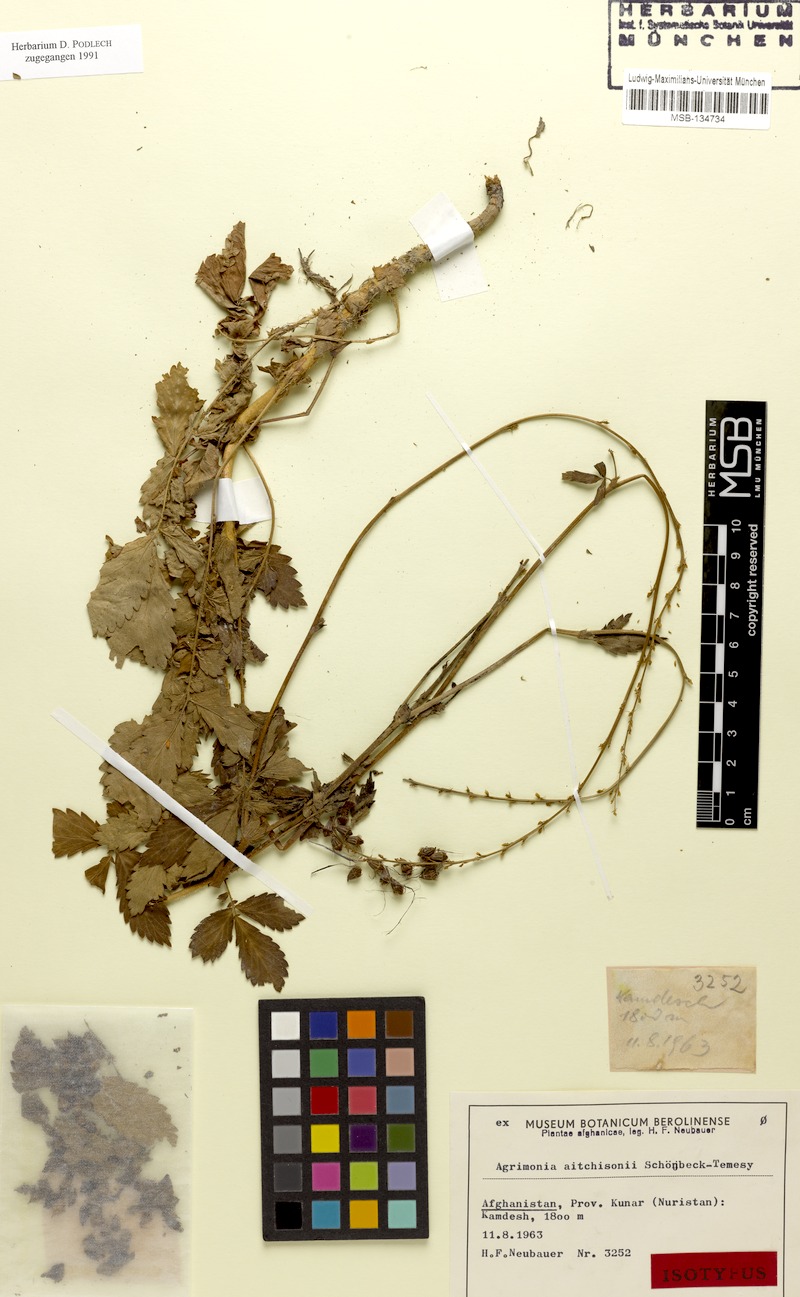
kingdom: Plantae
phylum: Tracheophyta
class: Magnoliopsida
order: Rosales
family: Rosaceae
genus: Agrimonia
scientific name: Agrimonia aitchisonii
